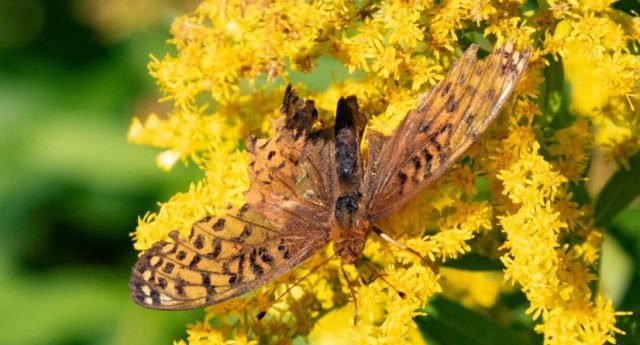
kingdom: Animalia
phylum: Arthropoda
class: Insecta
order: Lepidoptera
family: Nymphalidae
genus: Speyeria
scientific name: Speyeria cybele
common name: Great Spangled Fritillary
